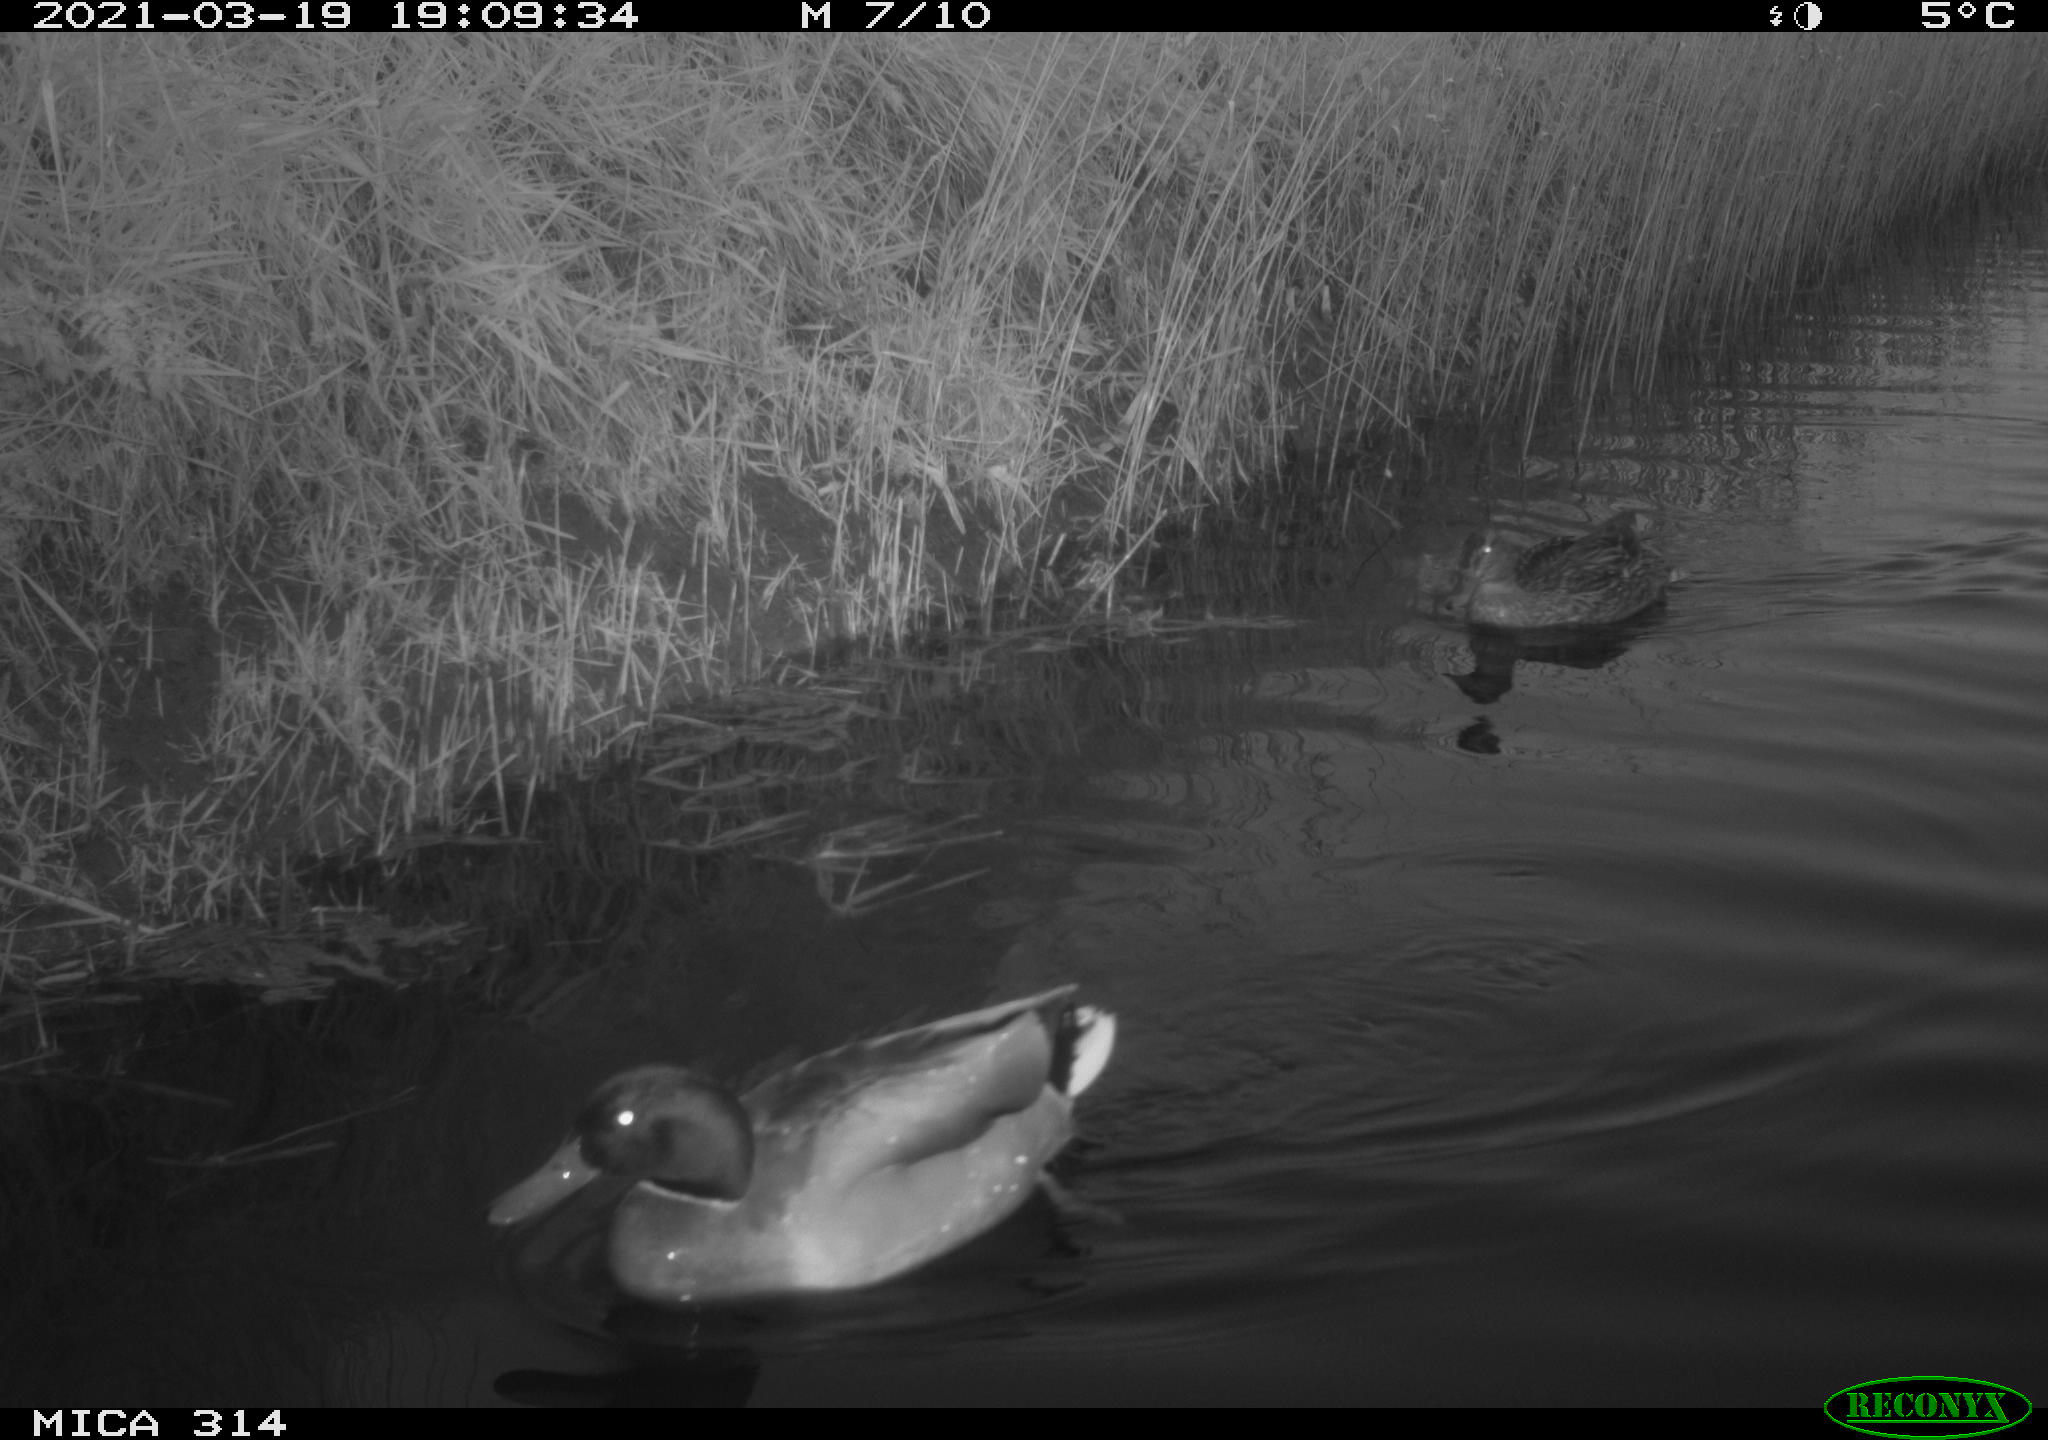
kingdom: Animalia
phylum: Chordata
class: Aves
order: Anseriformes
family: Anatidae
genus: Anas
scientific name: Anas platyrhynchos
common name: Mallard
